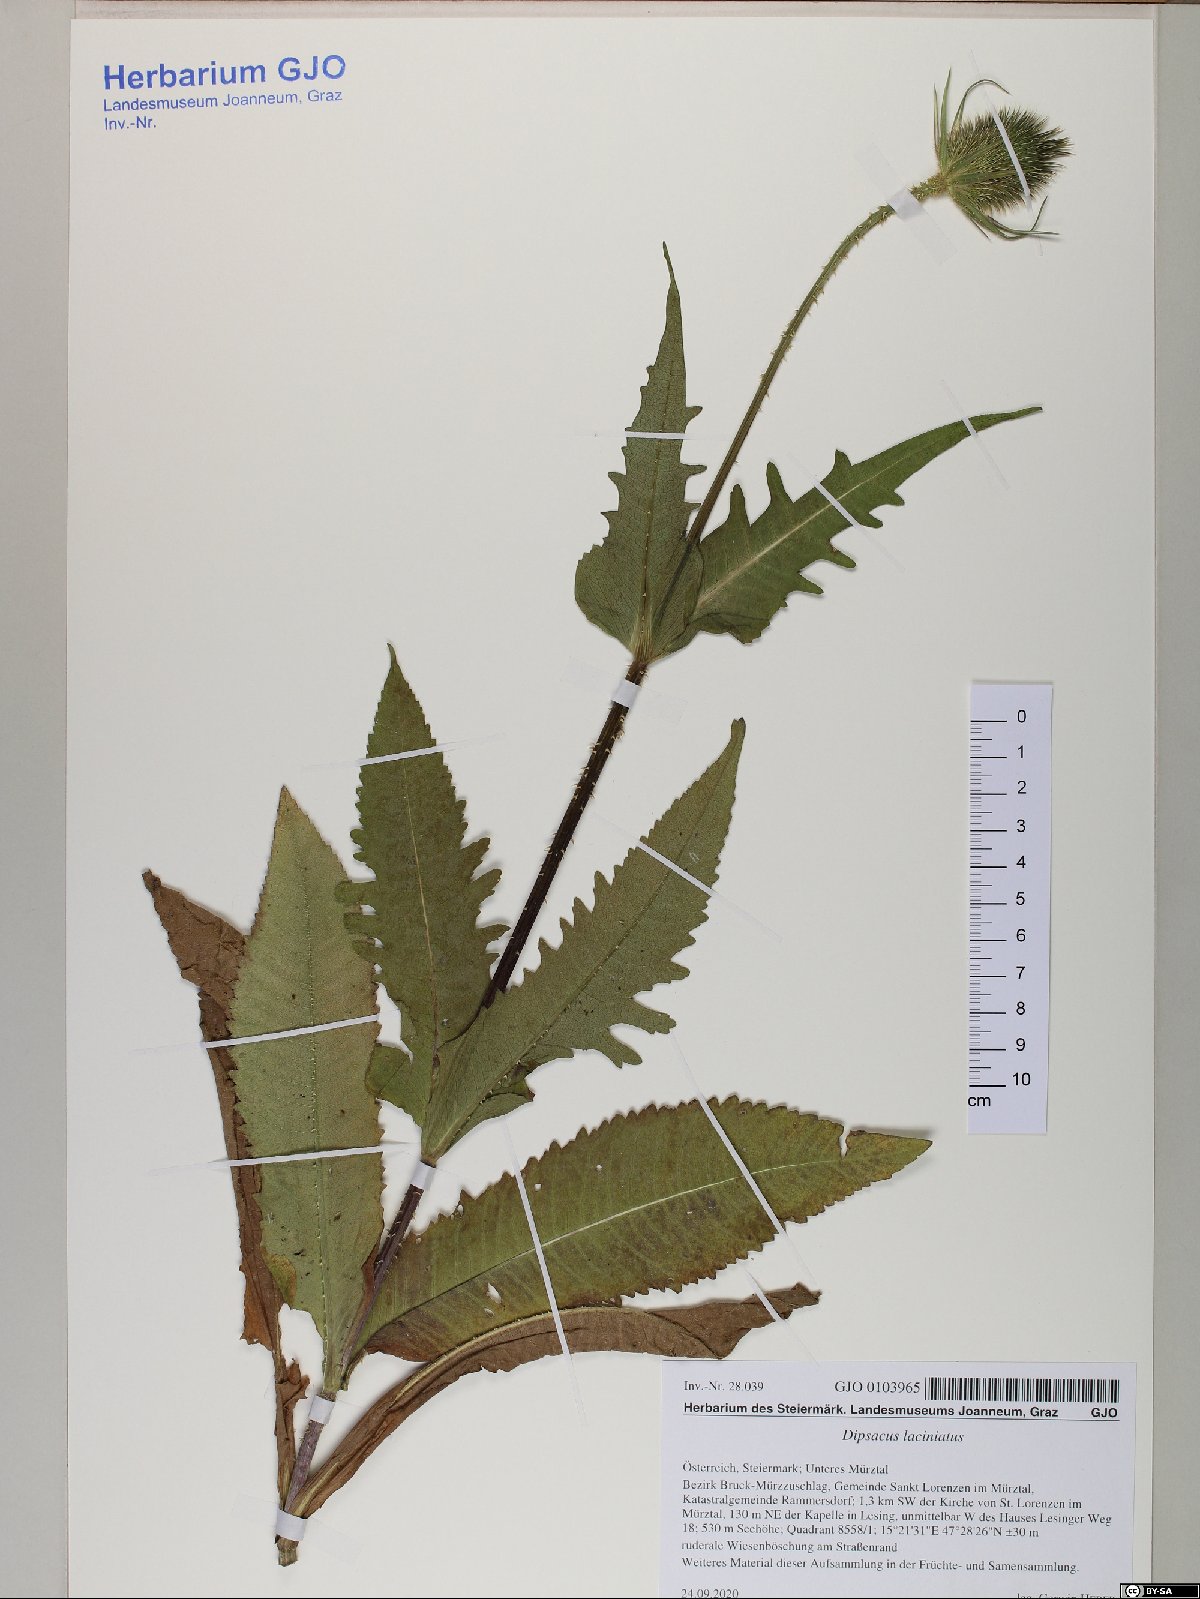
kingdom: Plantae
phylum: Tracheophyta
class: Magnoliopsida
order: Dipsacales
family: Caprifoliaceae
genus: Dipsacus
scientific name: Dipsacus laciniatus
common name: Cut-leaved teasel
